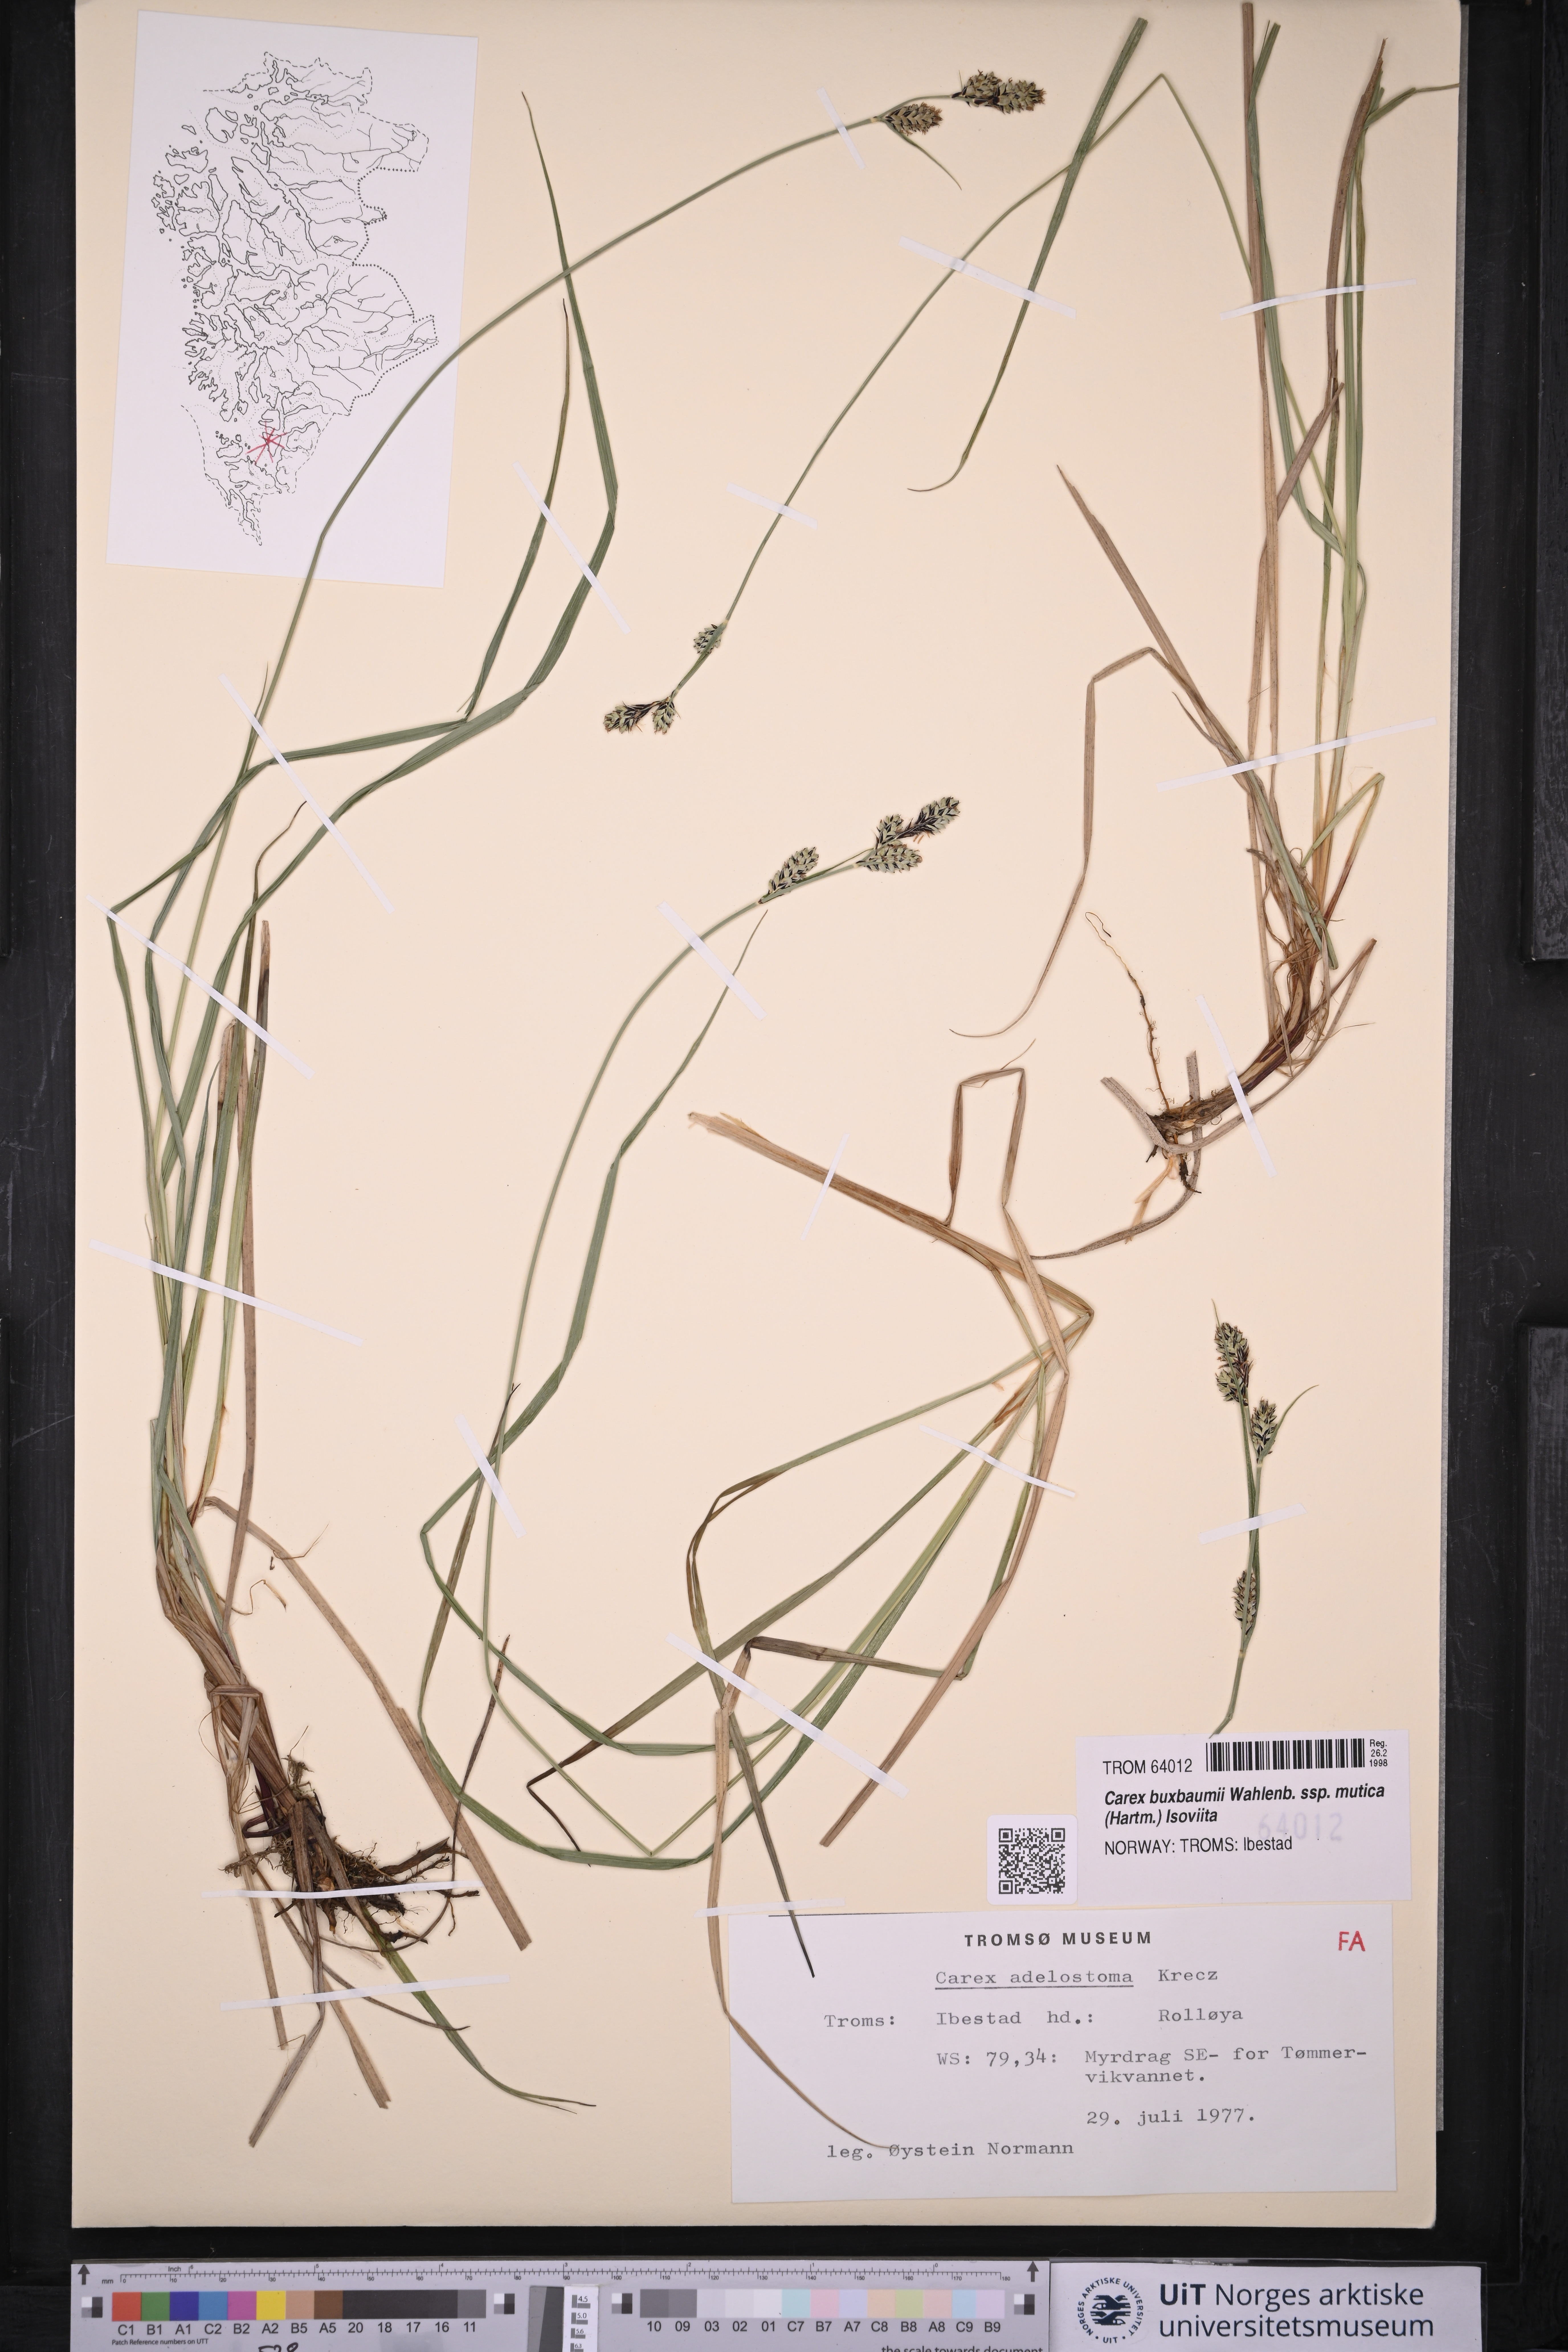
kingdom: Plantae
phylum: Tracheophyta
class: Liliopsida
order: Poales
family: Cyperaceae
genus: Carex
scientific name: Carex adelostoma
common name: Circumpolar sedge
